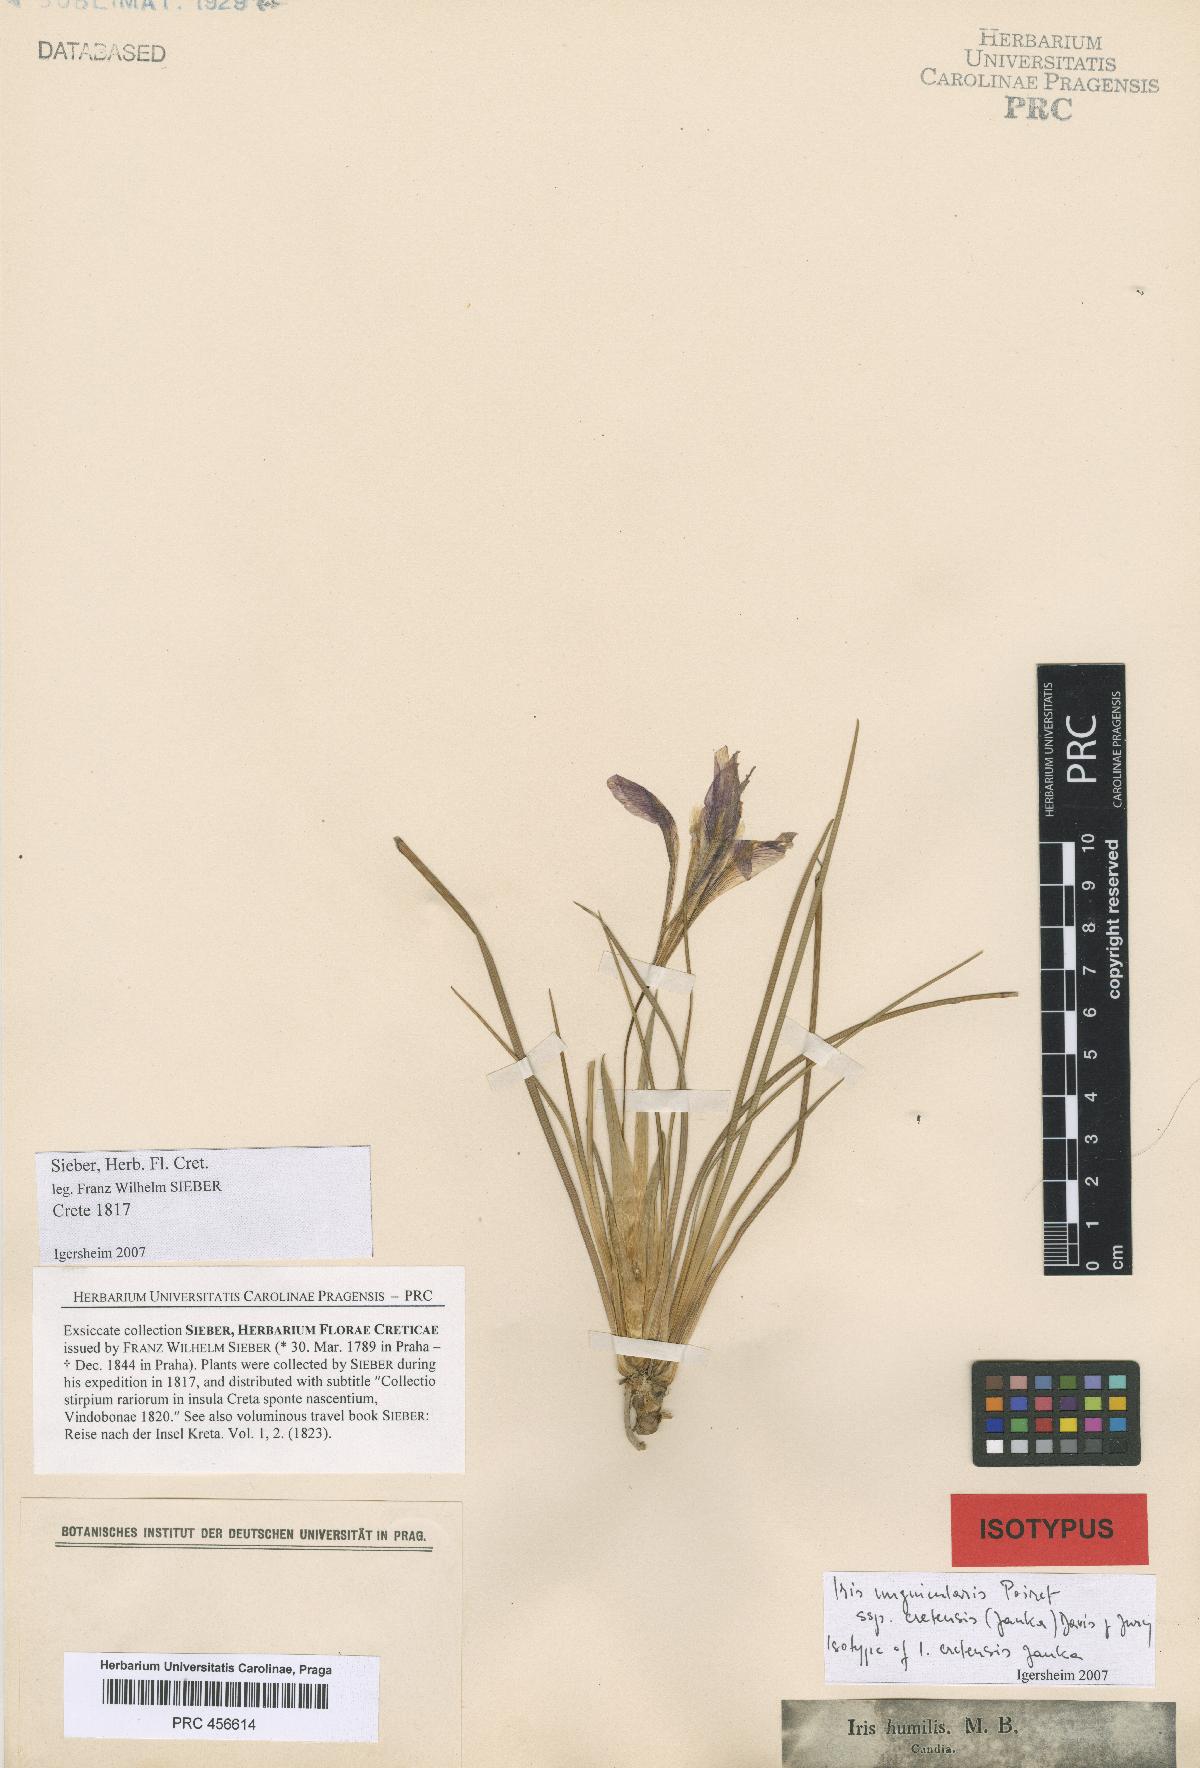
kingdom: Plantae
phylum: Tracheophyta
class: Liliopsida
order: Asparagales
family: Iridaceae
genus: Iris
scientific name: Iris unguicularis
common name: Algerian iris
